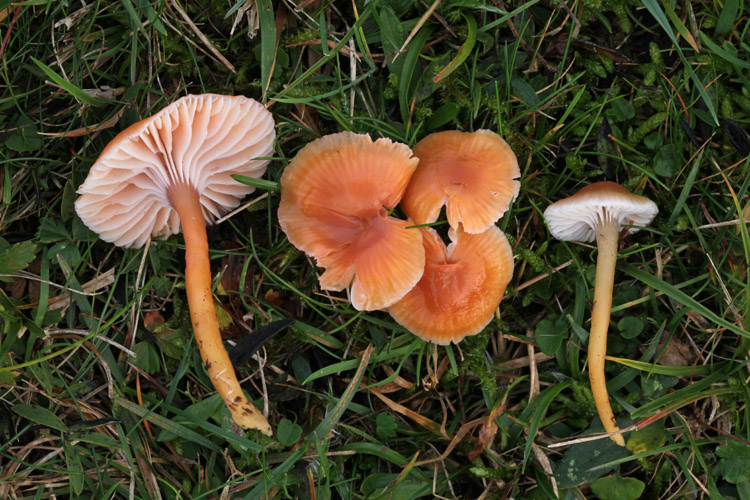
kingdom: Fungi
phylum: Basidiomycota
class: Agaricomycetes
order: Agaricales
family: Hygrophoraceae
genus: Gliophorus
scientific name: Gliophorus laetus
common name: brusk-vokshat
